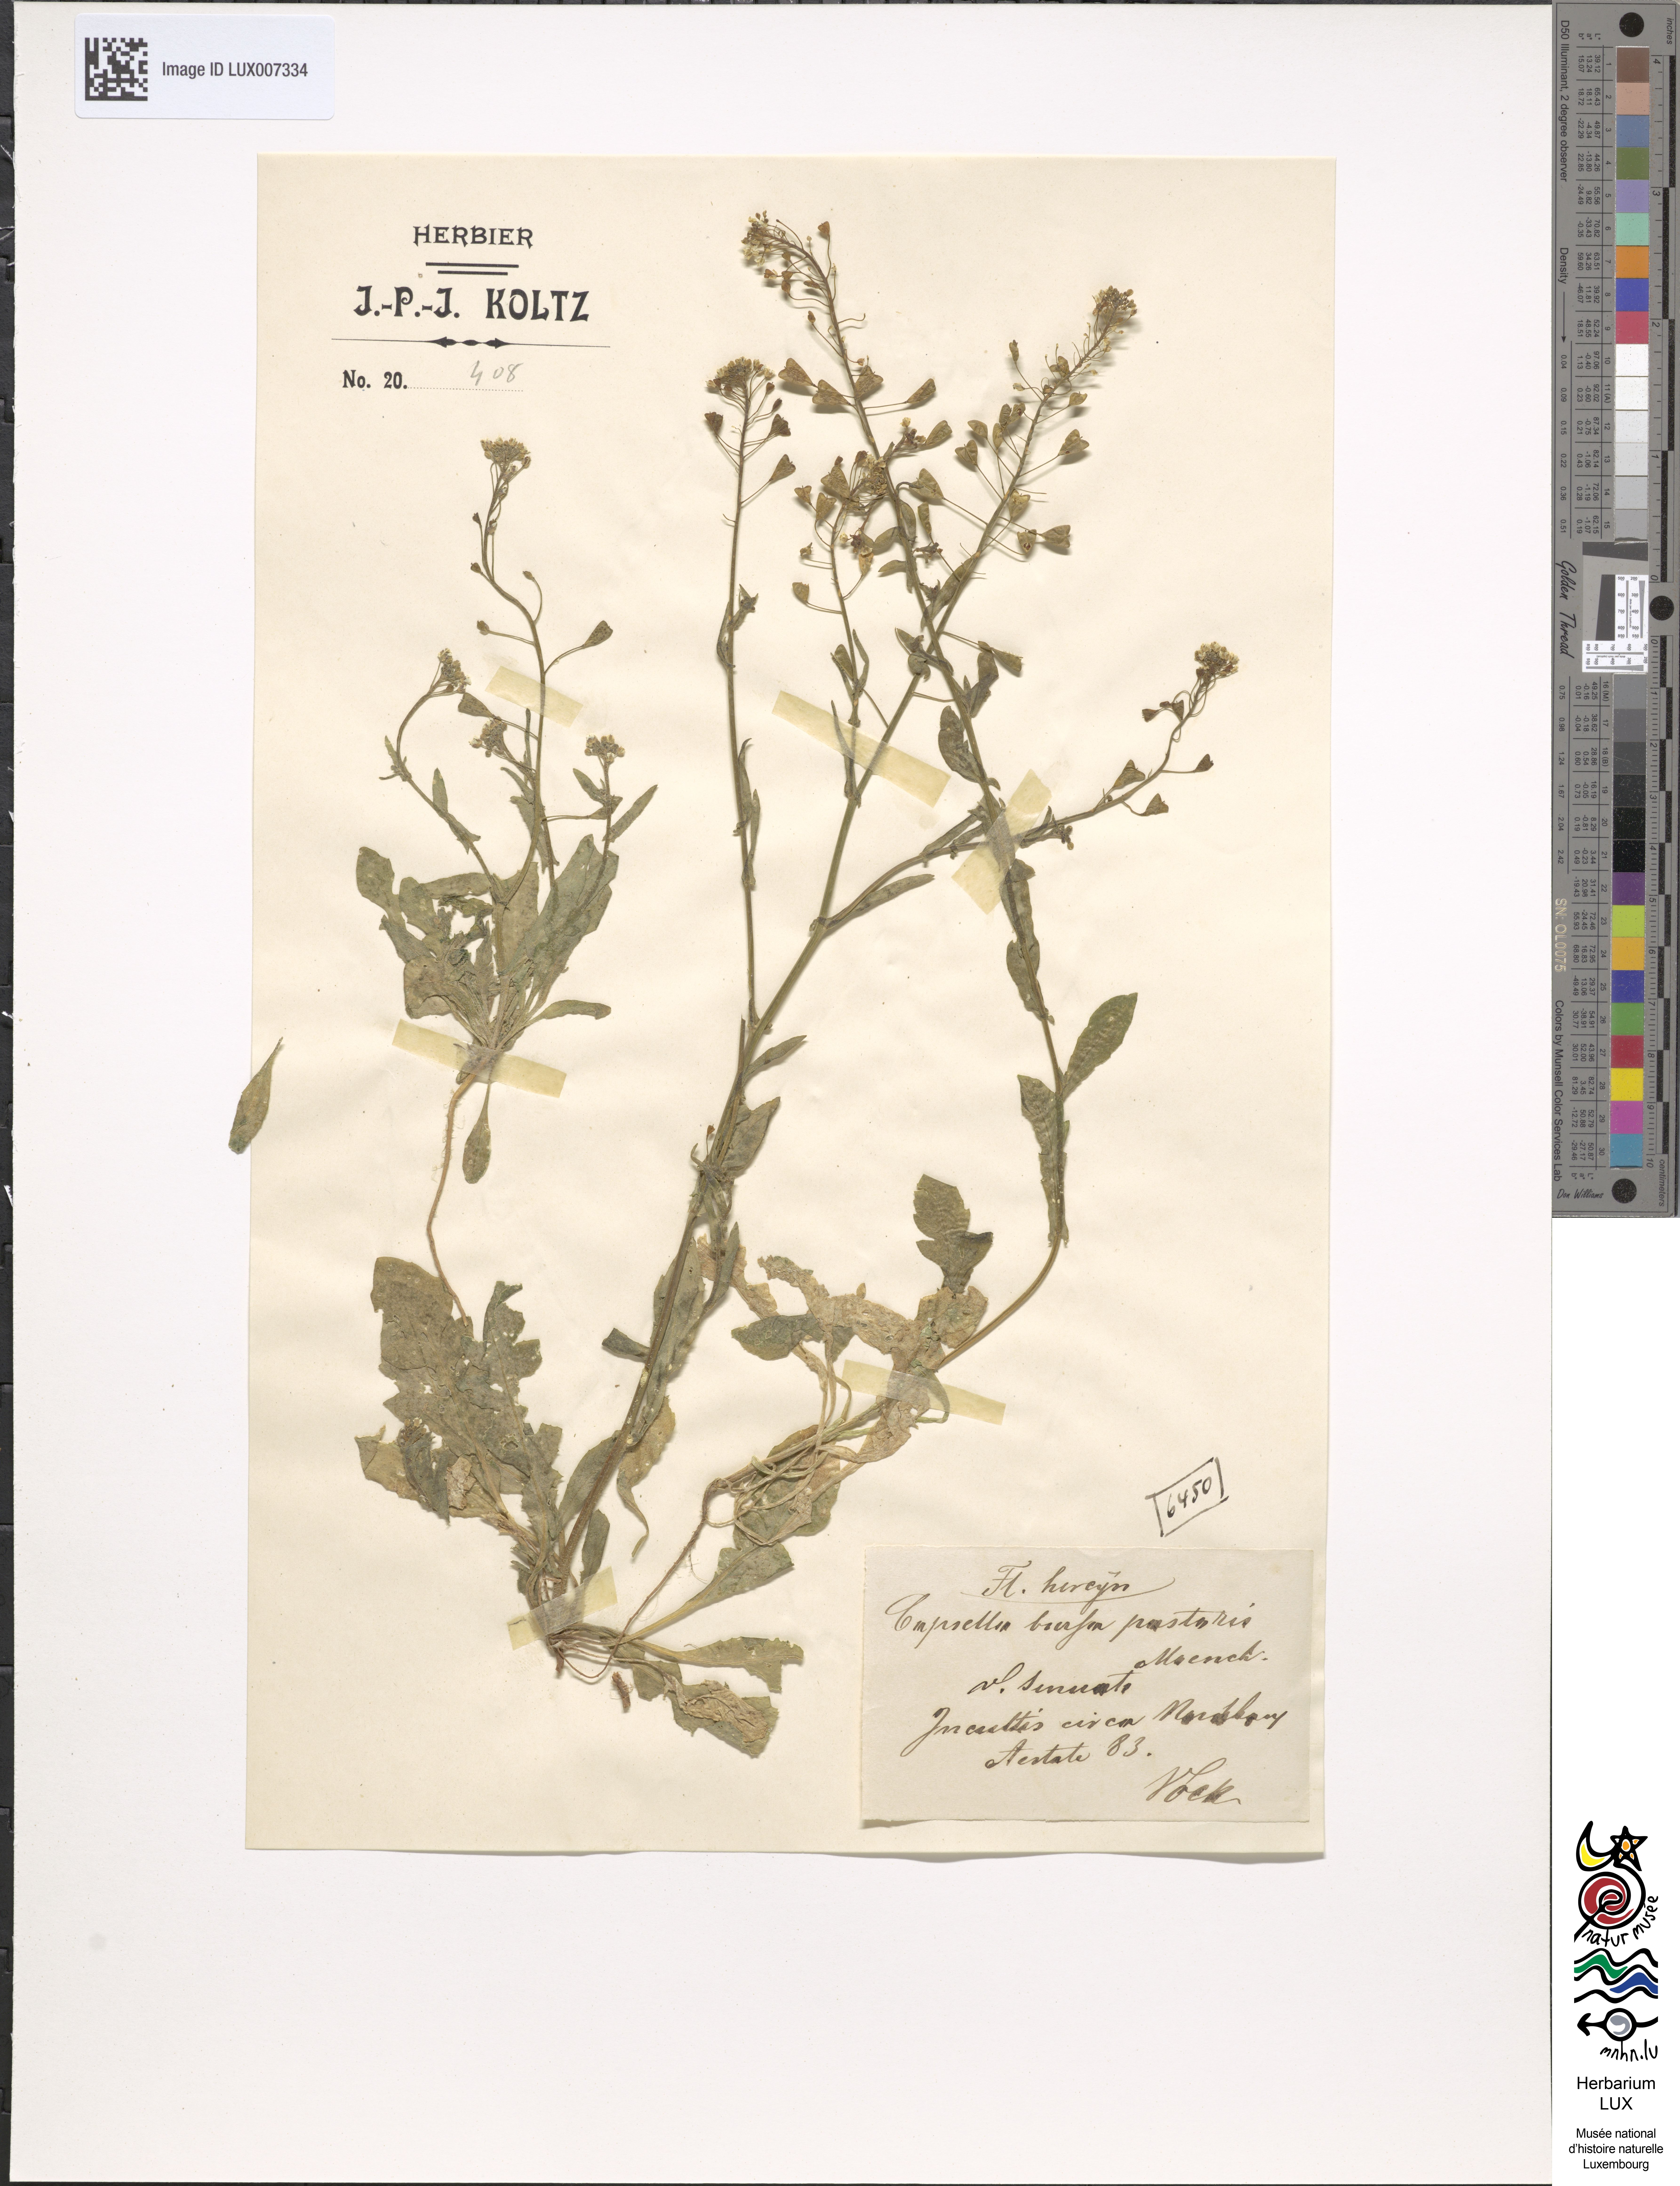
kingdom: Plantae
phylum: Tracheophyta
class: Magnoliopsida
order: Brassicales
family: Brassicaceae
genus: Capsella
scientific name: Capsella bursa-pastoris
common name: Shepherd's purse
